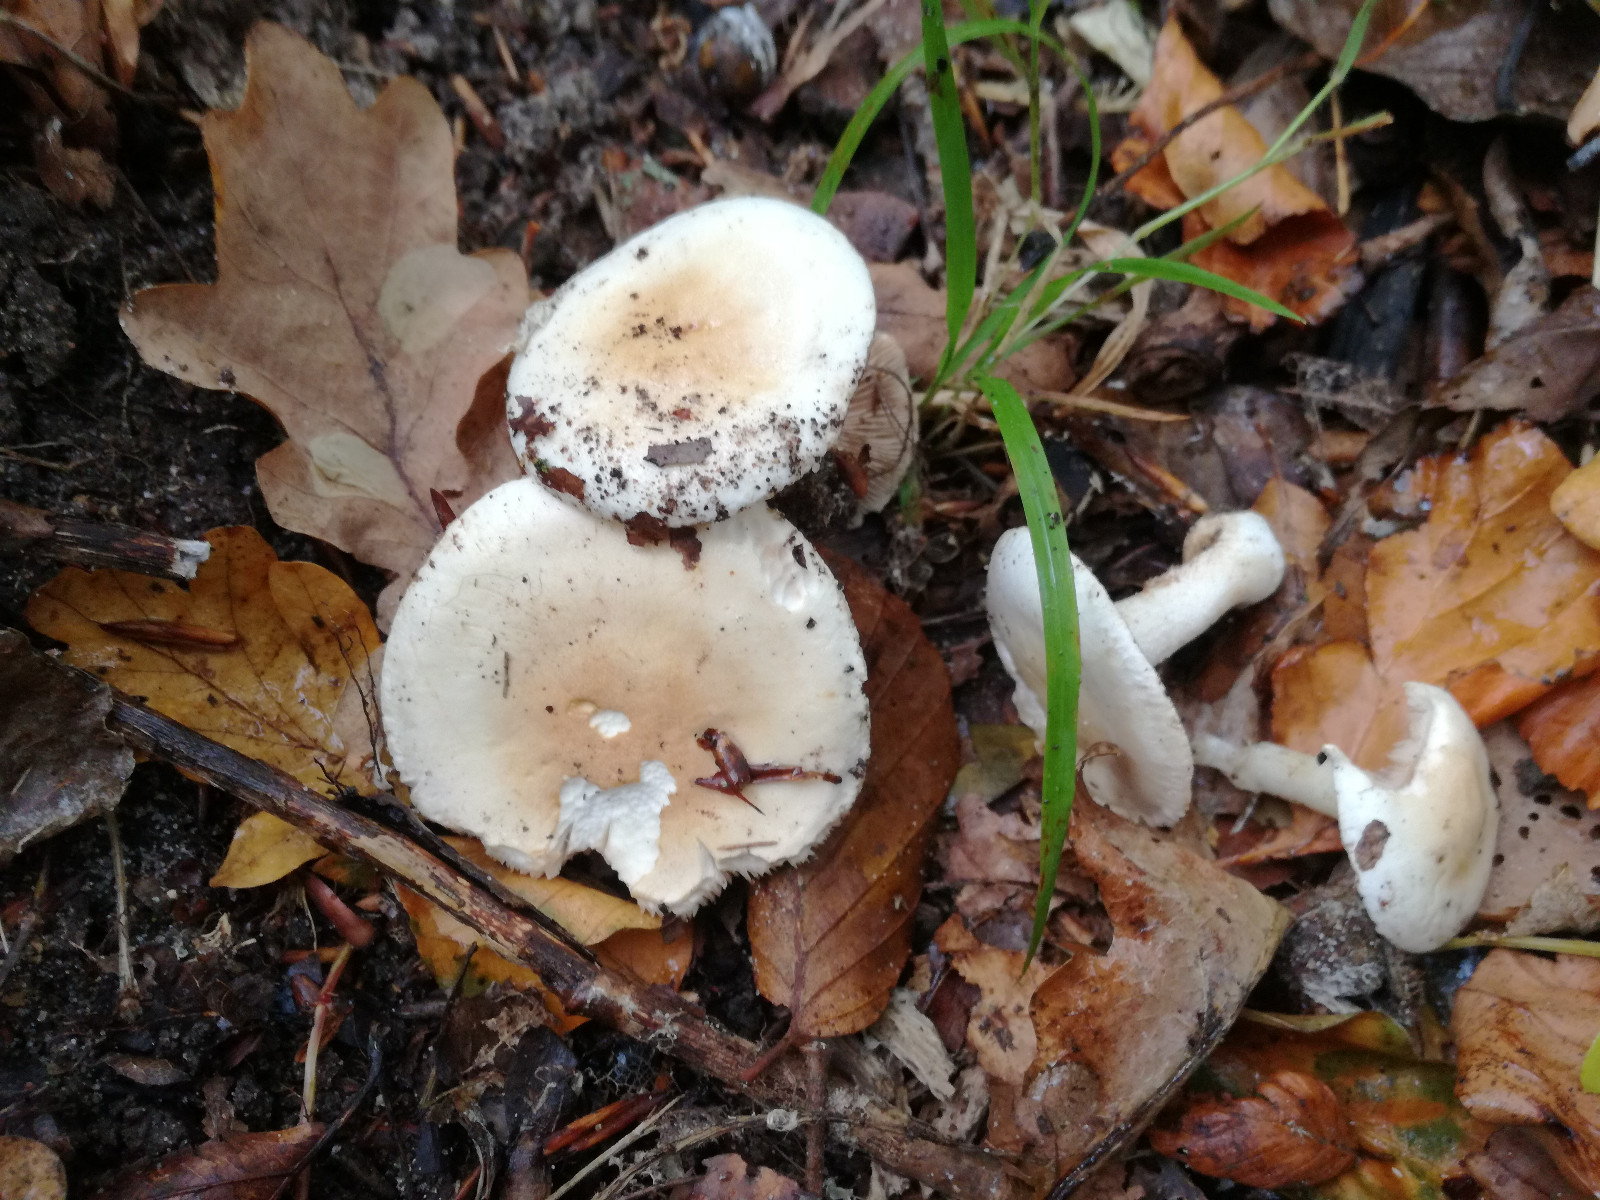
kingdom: Fungi
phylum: Basidiomycota
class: Agaricomycetes
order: Agaricales
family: Hymenogastraceae
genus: Hebeloma
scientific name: Hebeloma
